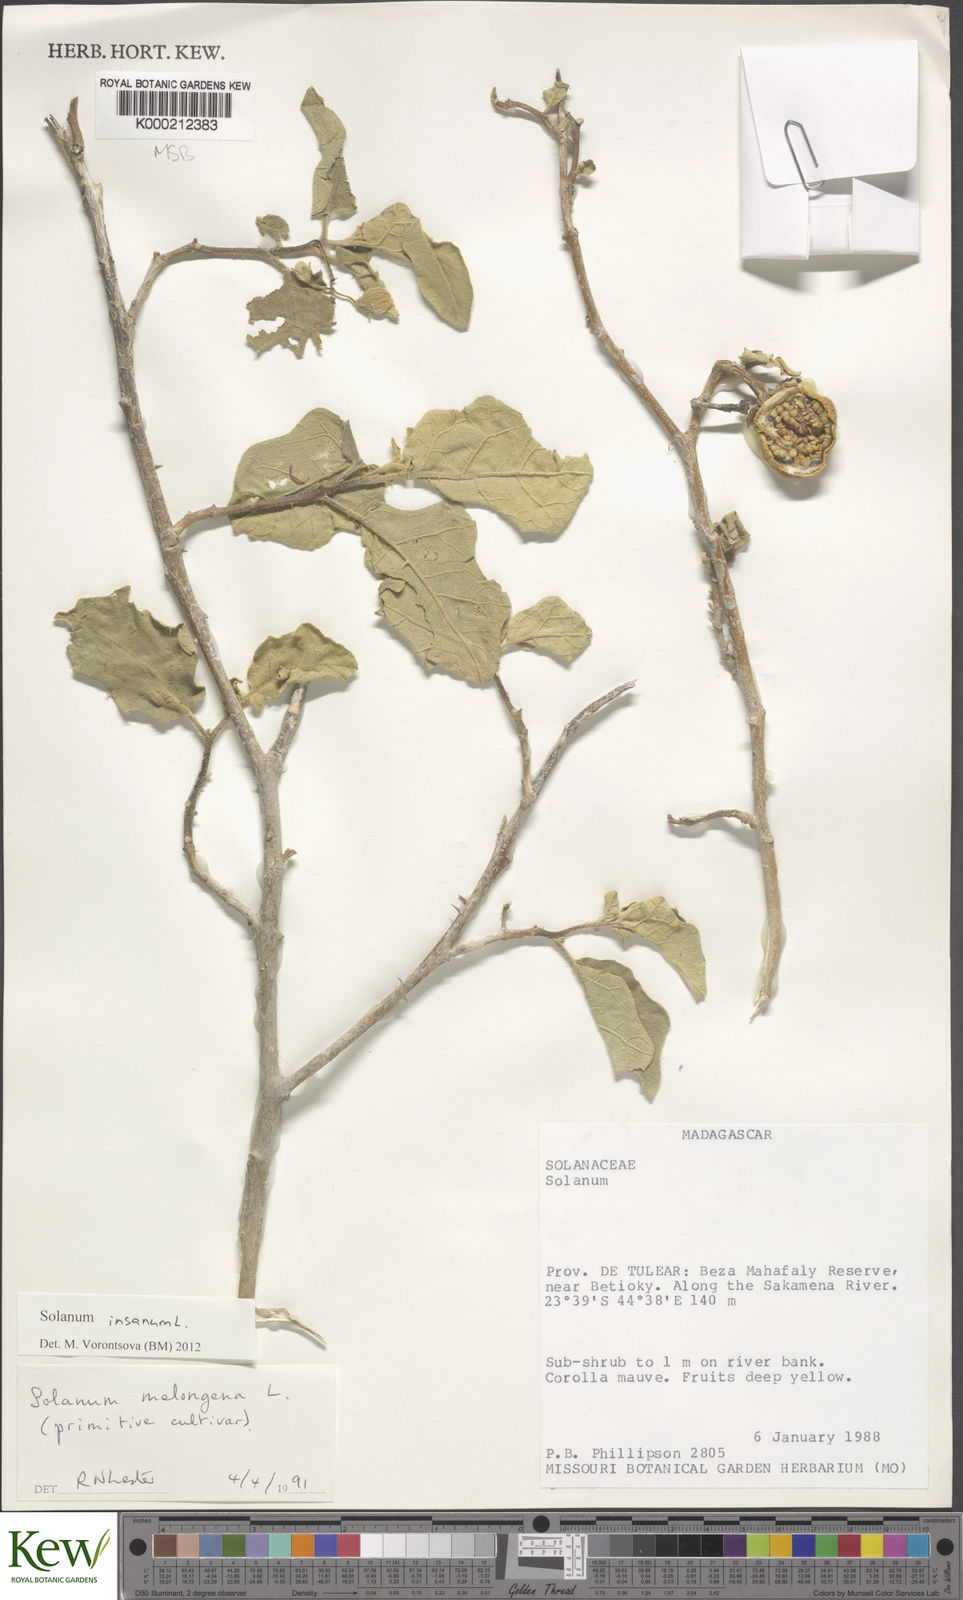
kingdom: Plantae
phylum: Tracheophyta
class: Magnoliopsida
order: Solanales
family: Solanaceae
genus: Solanum
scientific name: Solanum melongena
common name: Eggplant
